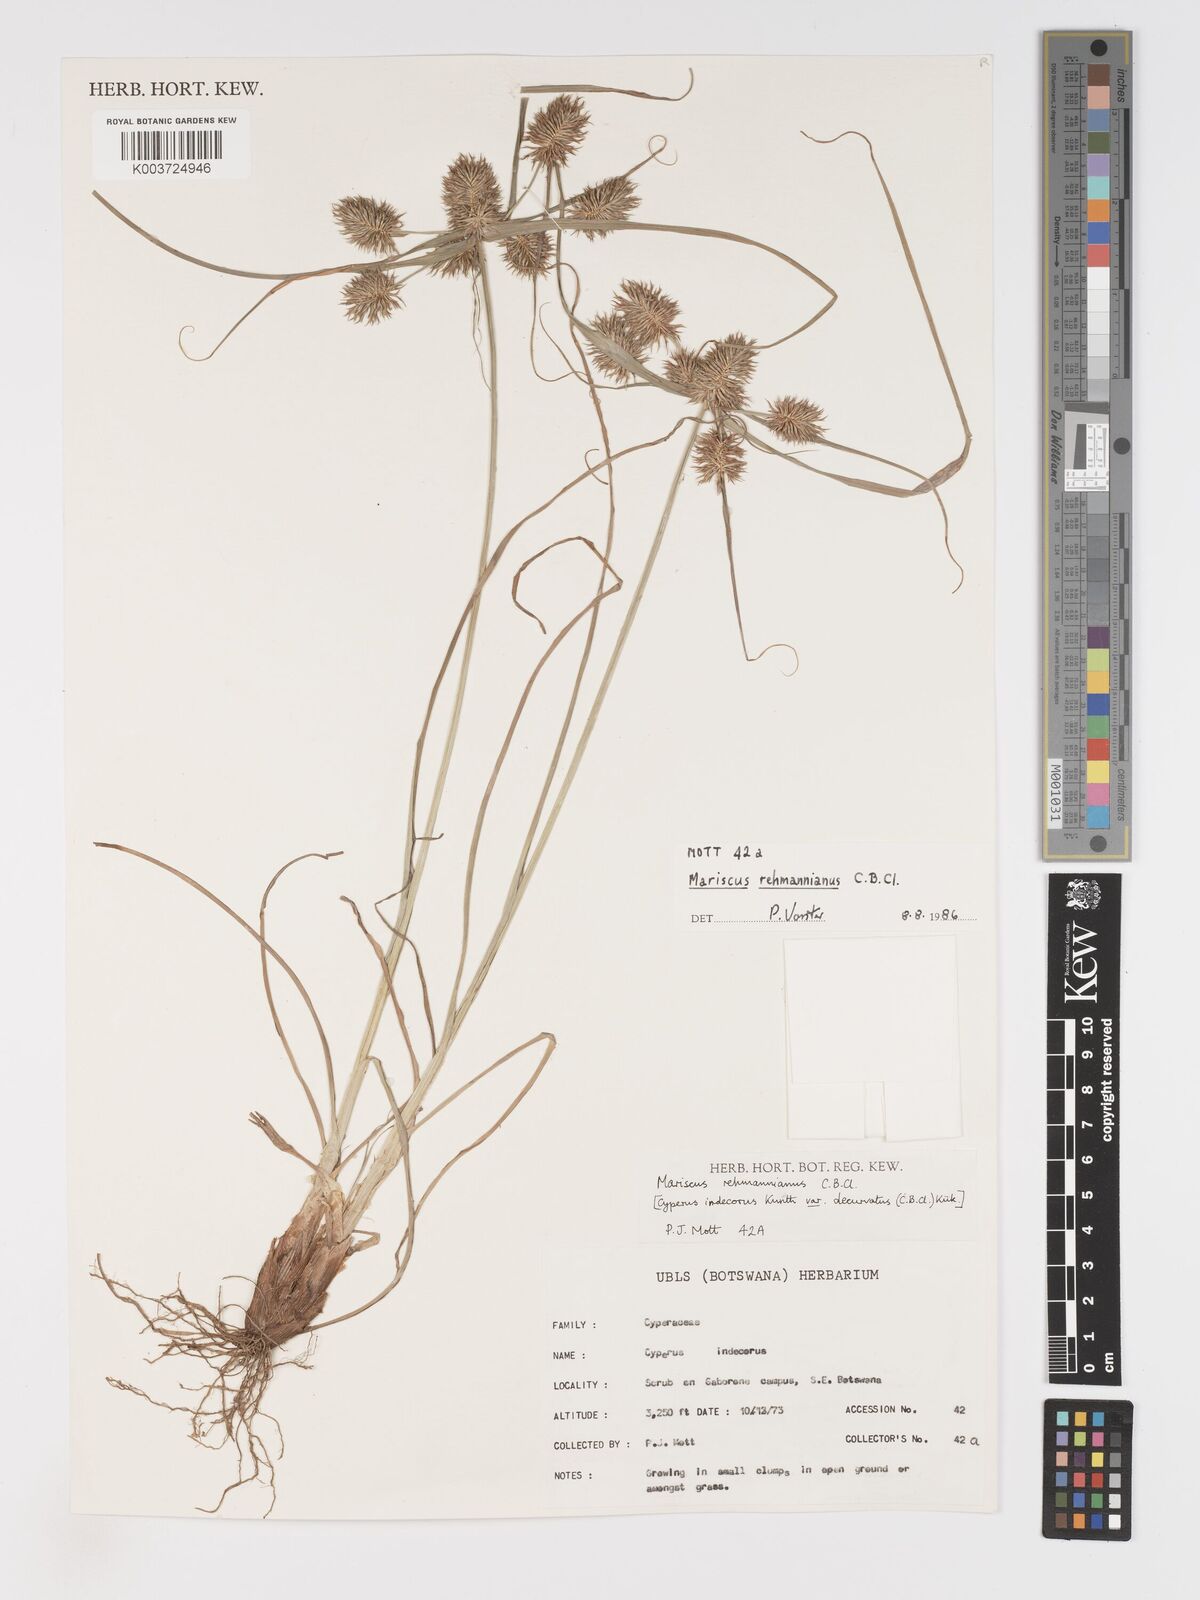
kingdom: Plantae
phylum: Tracheophyta
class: Liliopsida
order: Poales
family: Cyperaceae
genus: Cyperus
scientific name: Cyperus indecorus
